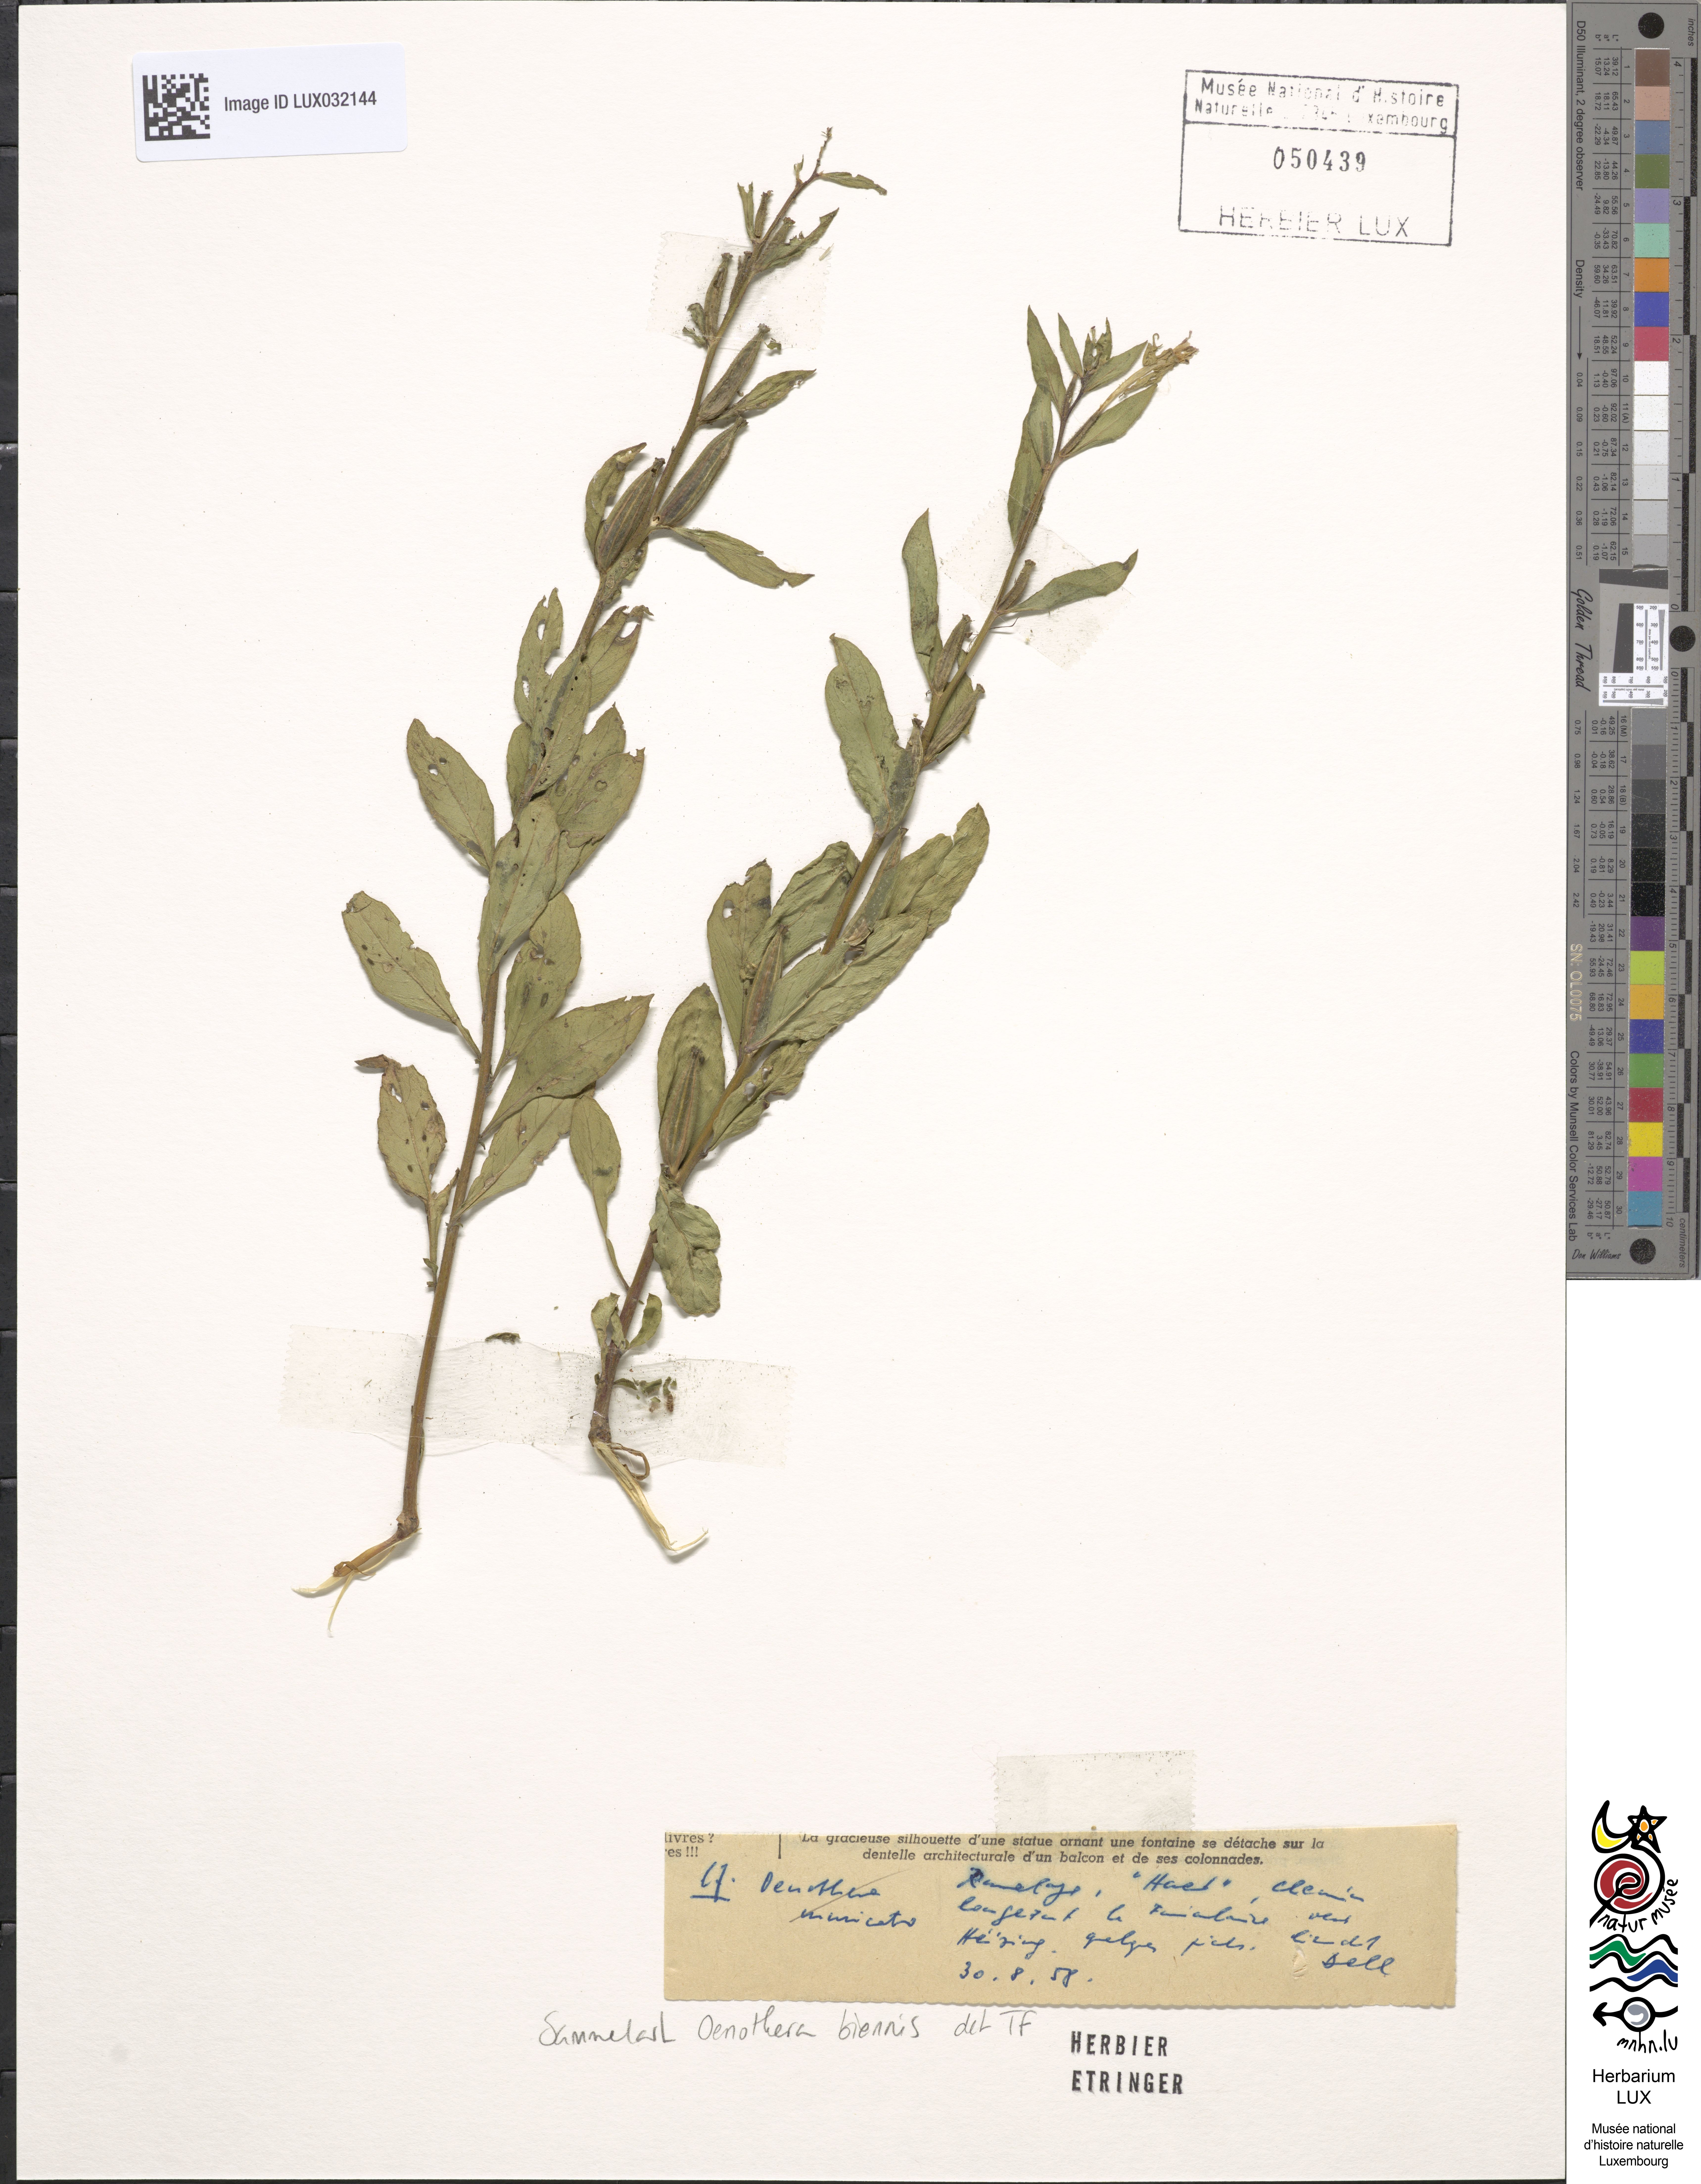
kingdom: Plantae
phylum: Tracheophyta
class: Magnoliopsida
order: Myrtales
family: Onagraceae
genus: Oenothera
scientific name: Oenothera biennis
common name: Common evening-primrose
